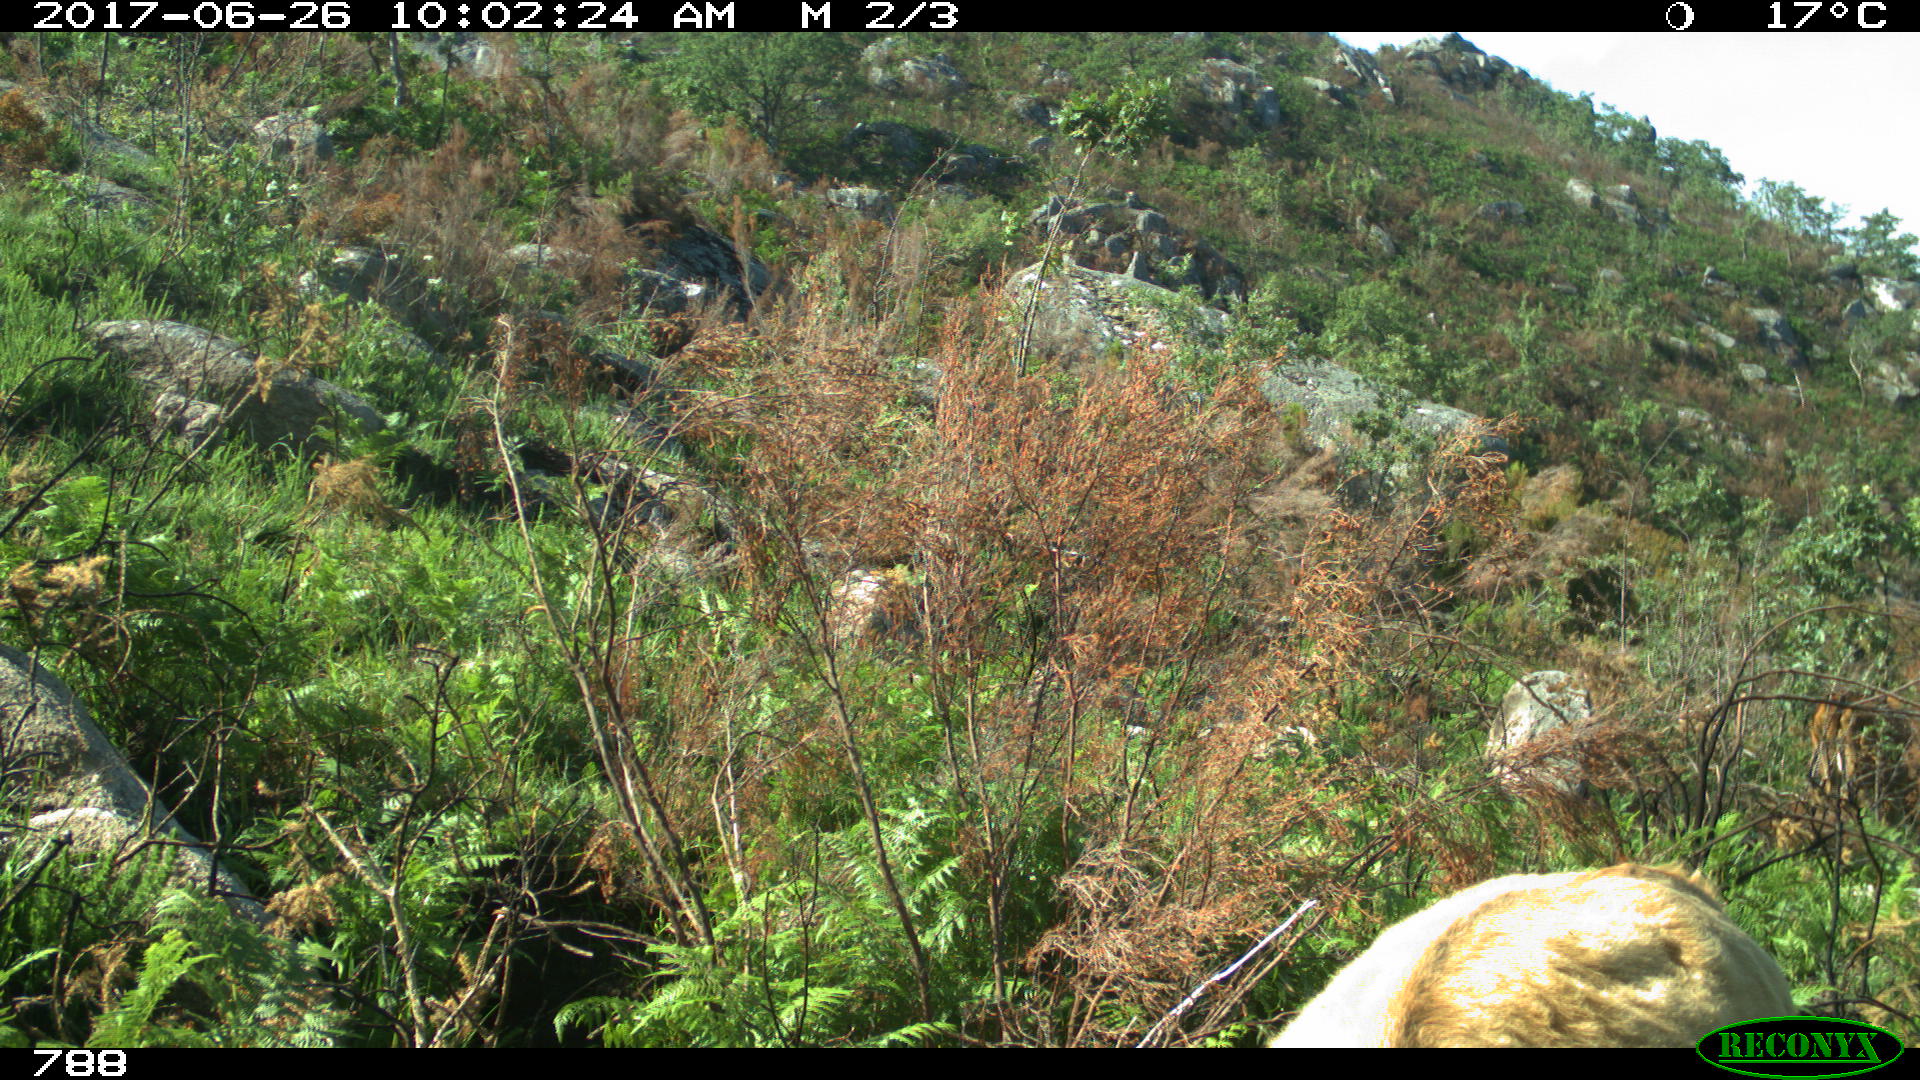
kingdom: Animalia
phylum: Chordata
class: Mammalia
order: Artiodactyla
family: Bovidae
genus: Bos
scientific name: Bos taurus
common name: Domesticated cattle
